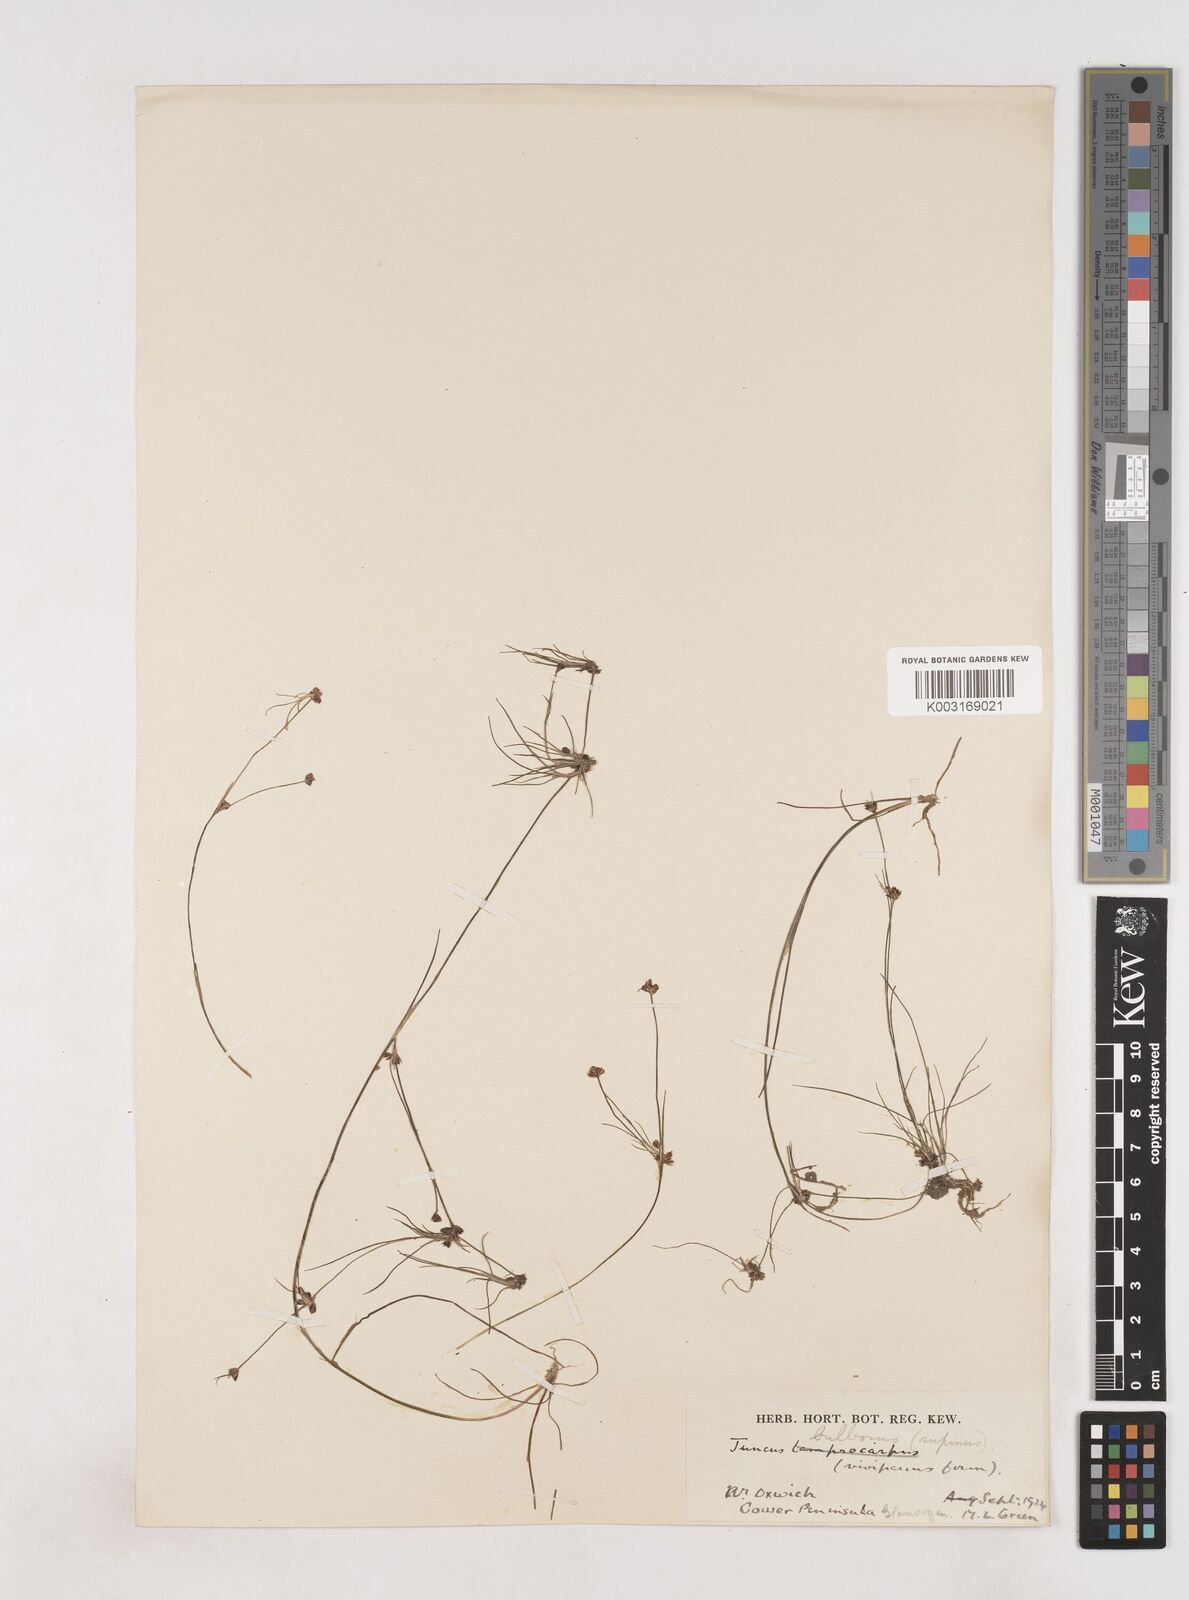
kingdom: Plantae
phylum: Tracheophyta
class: Liliopsida
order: Poales
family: Juncaceae
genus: Juncus
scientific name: Juncus bulbosus
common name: Bulbous rush
